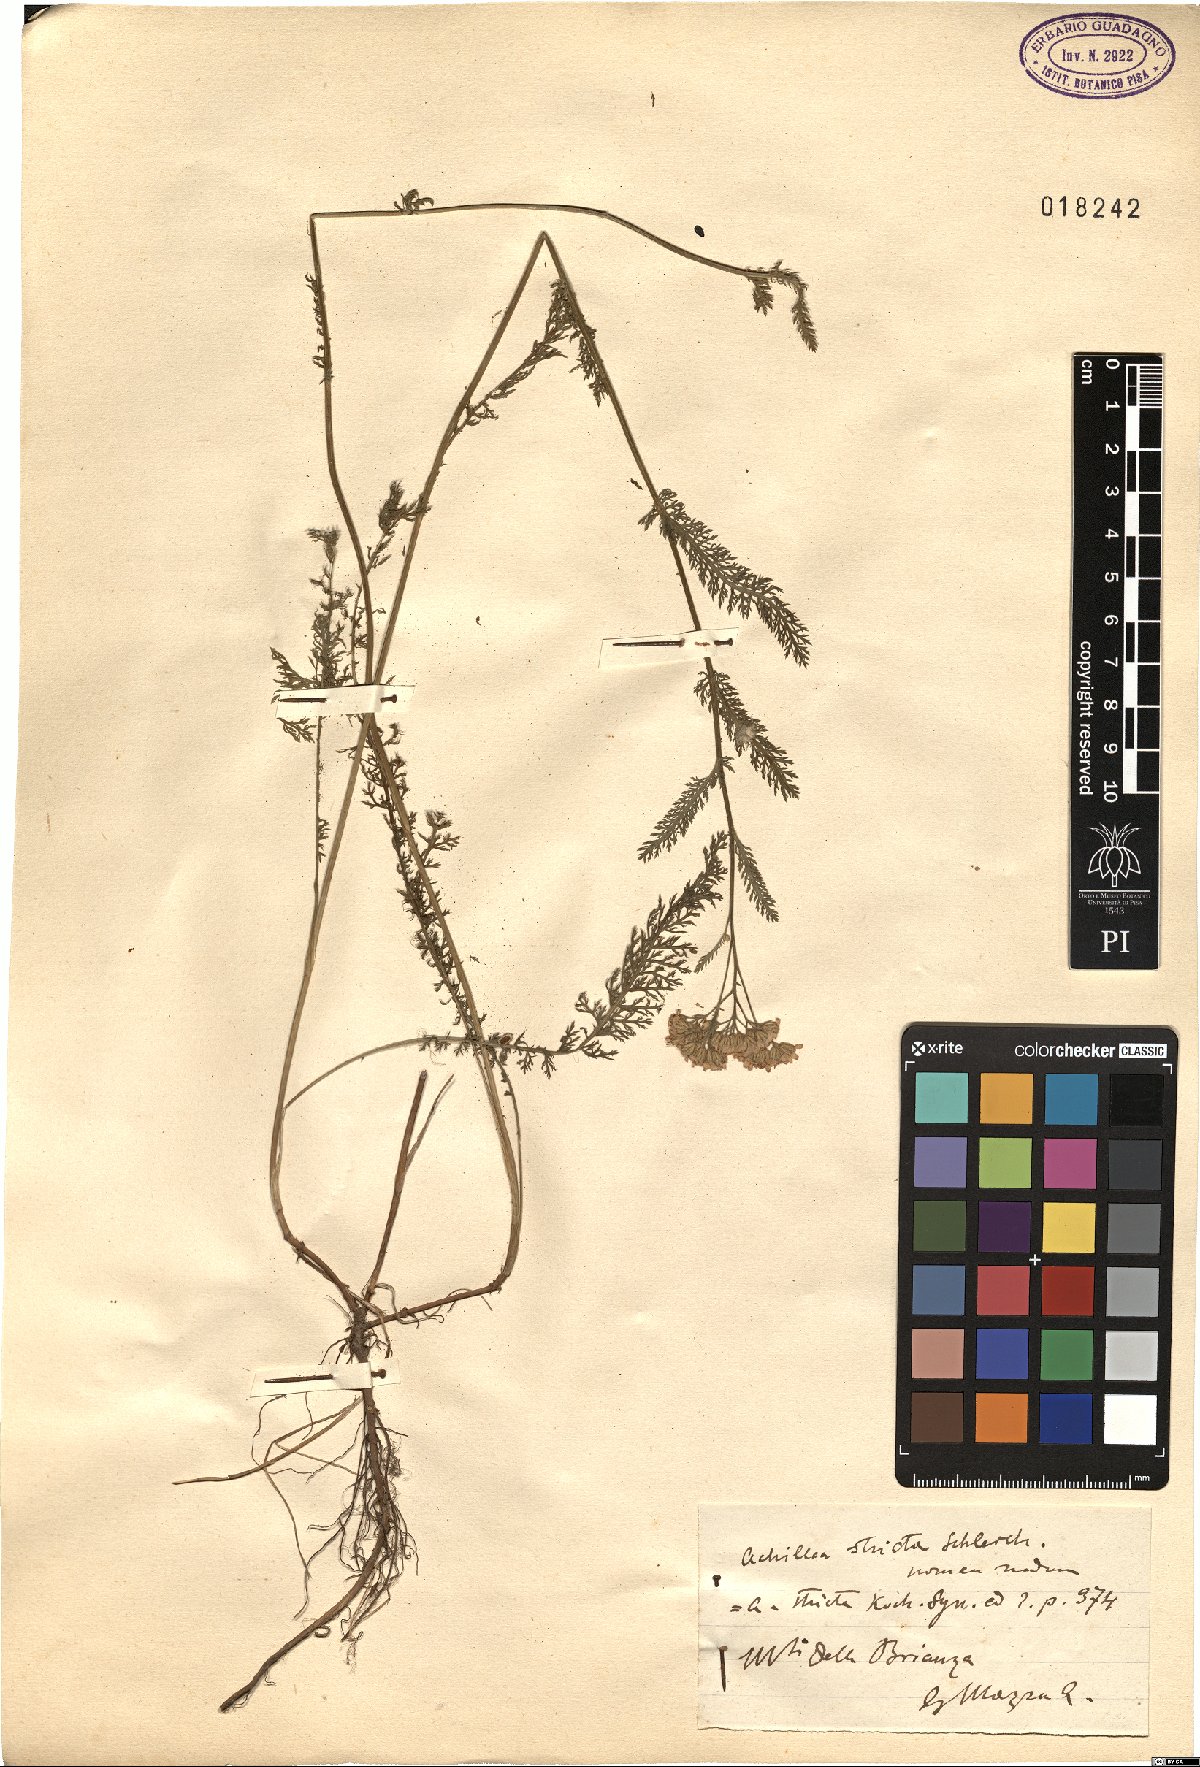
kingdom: Plantae
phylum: Tracheophyta
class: Magnoliopsida
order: Asterales
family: Asteraceae
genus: Achillea
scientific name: Achillea distans
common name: Tall yarrow
